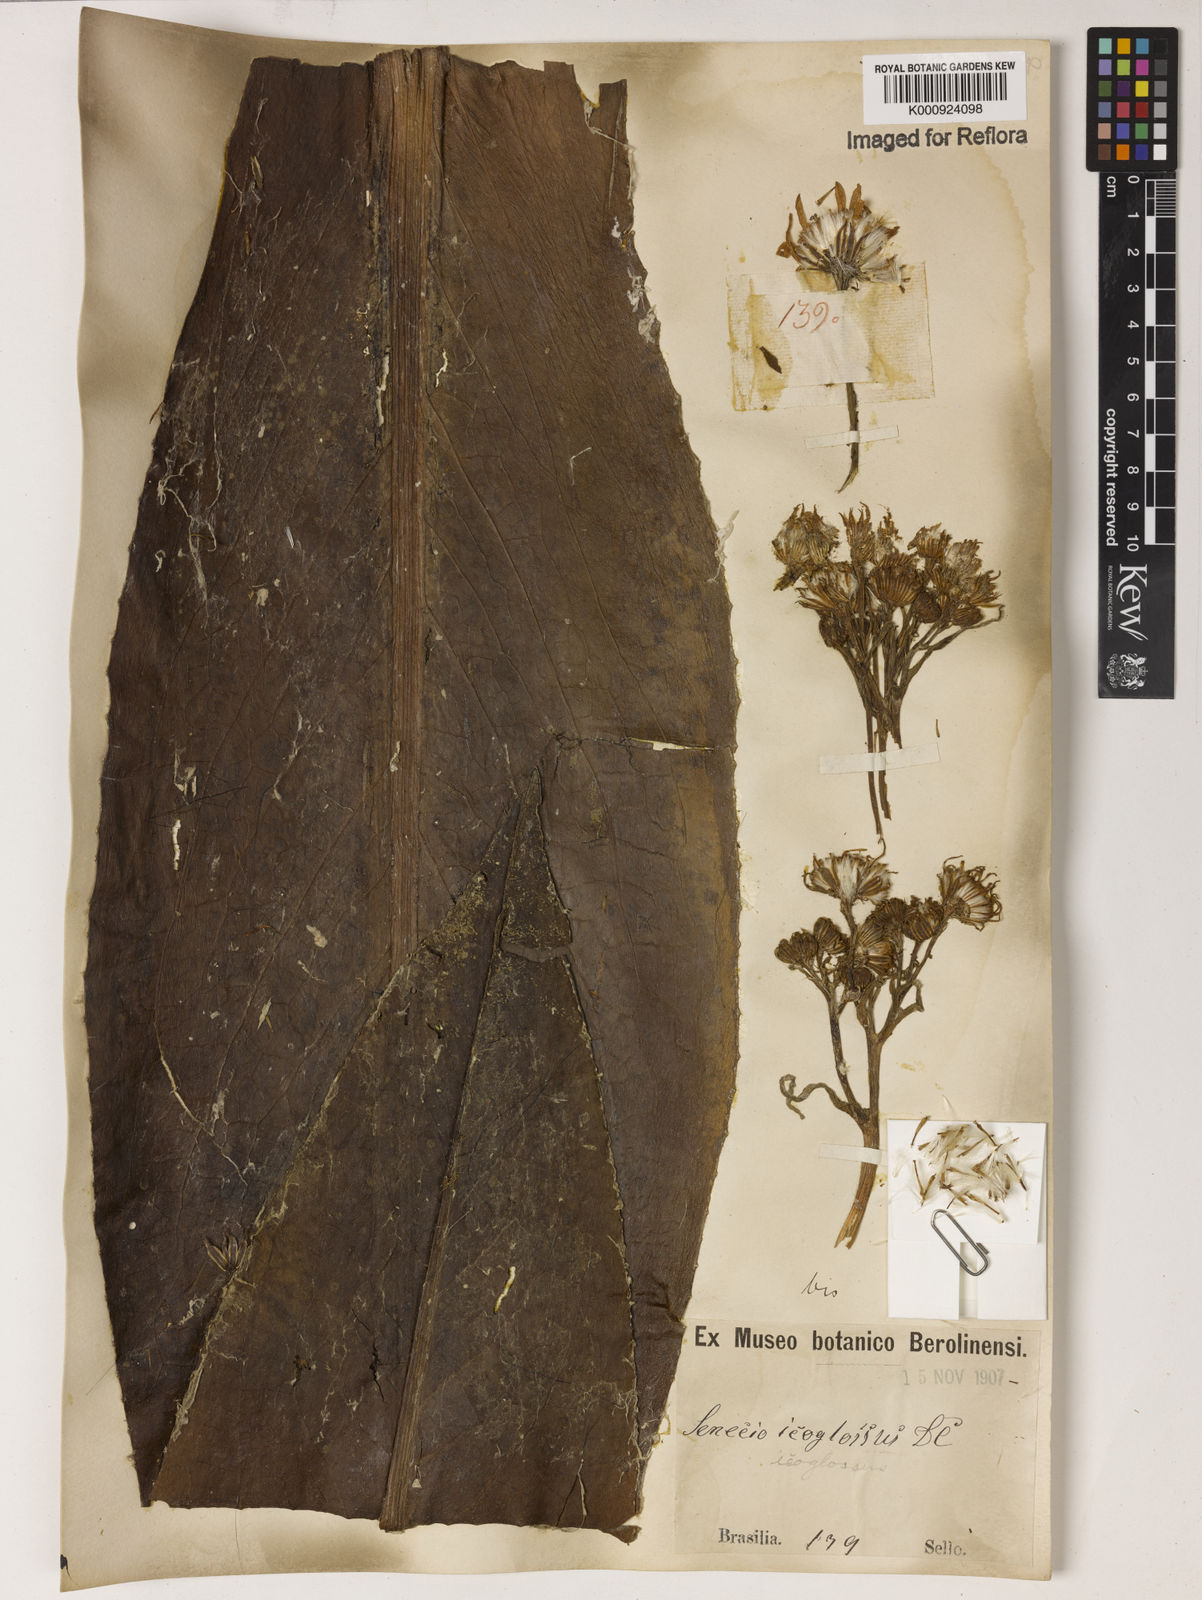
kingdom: Plantae
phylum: Tracheophyta
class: Magnoliopsida
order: Asterales
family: Asteraceae
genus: Senecio
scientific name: Senecio icoglossus
